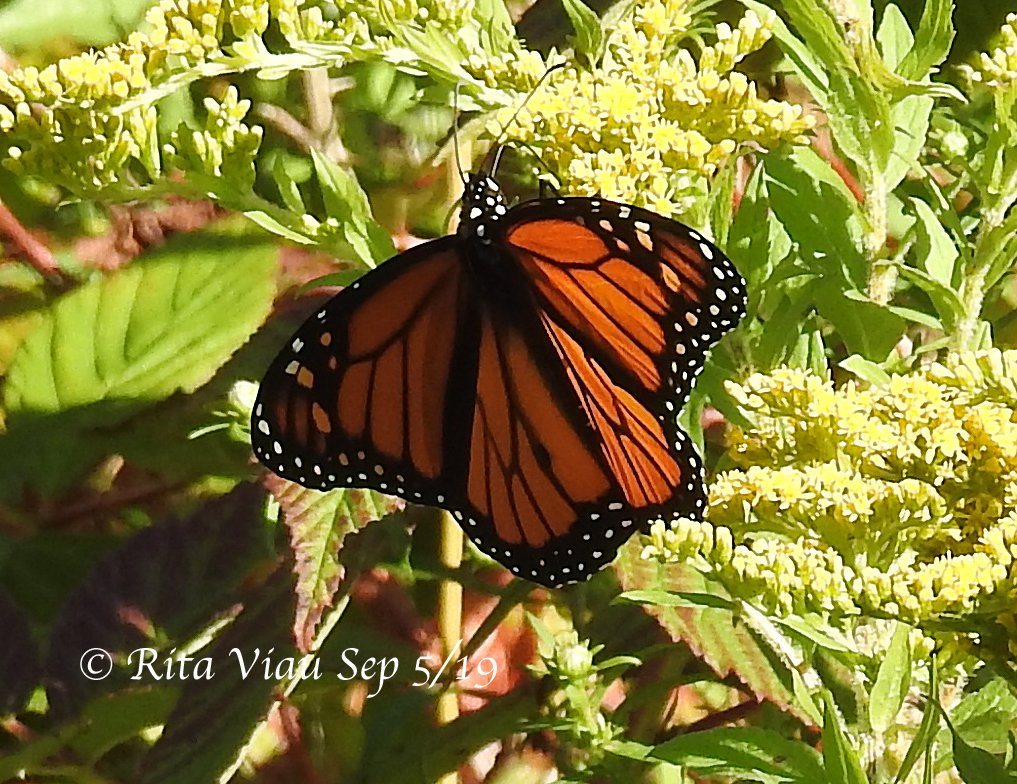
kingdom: Animalia
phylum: Arthropoda
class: Insecta
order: Lepidoptera
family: Nymphalidae
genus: Danaus
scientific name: Danaus plexippus
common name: Monarch
